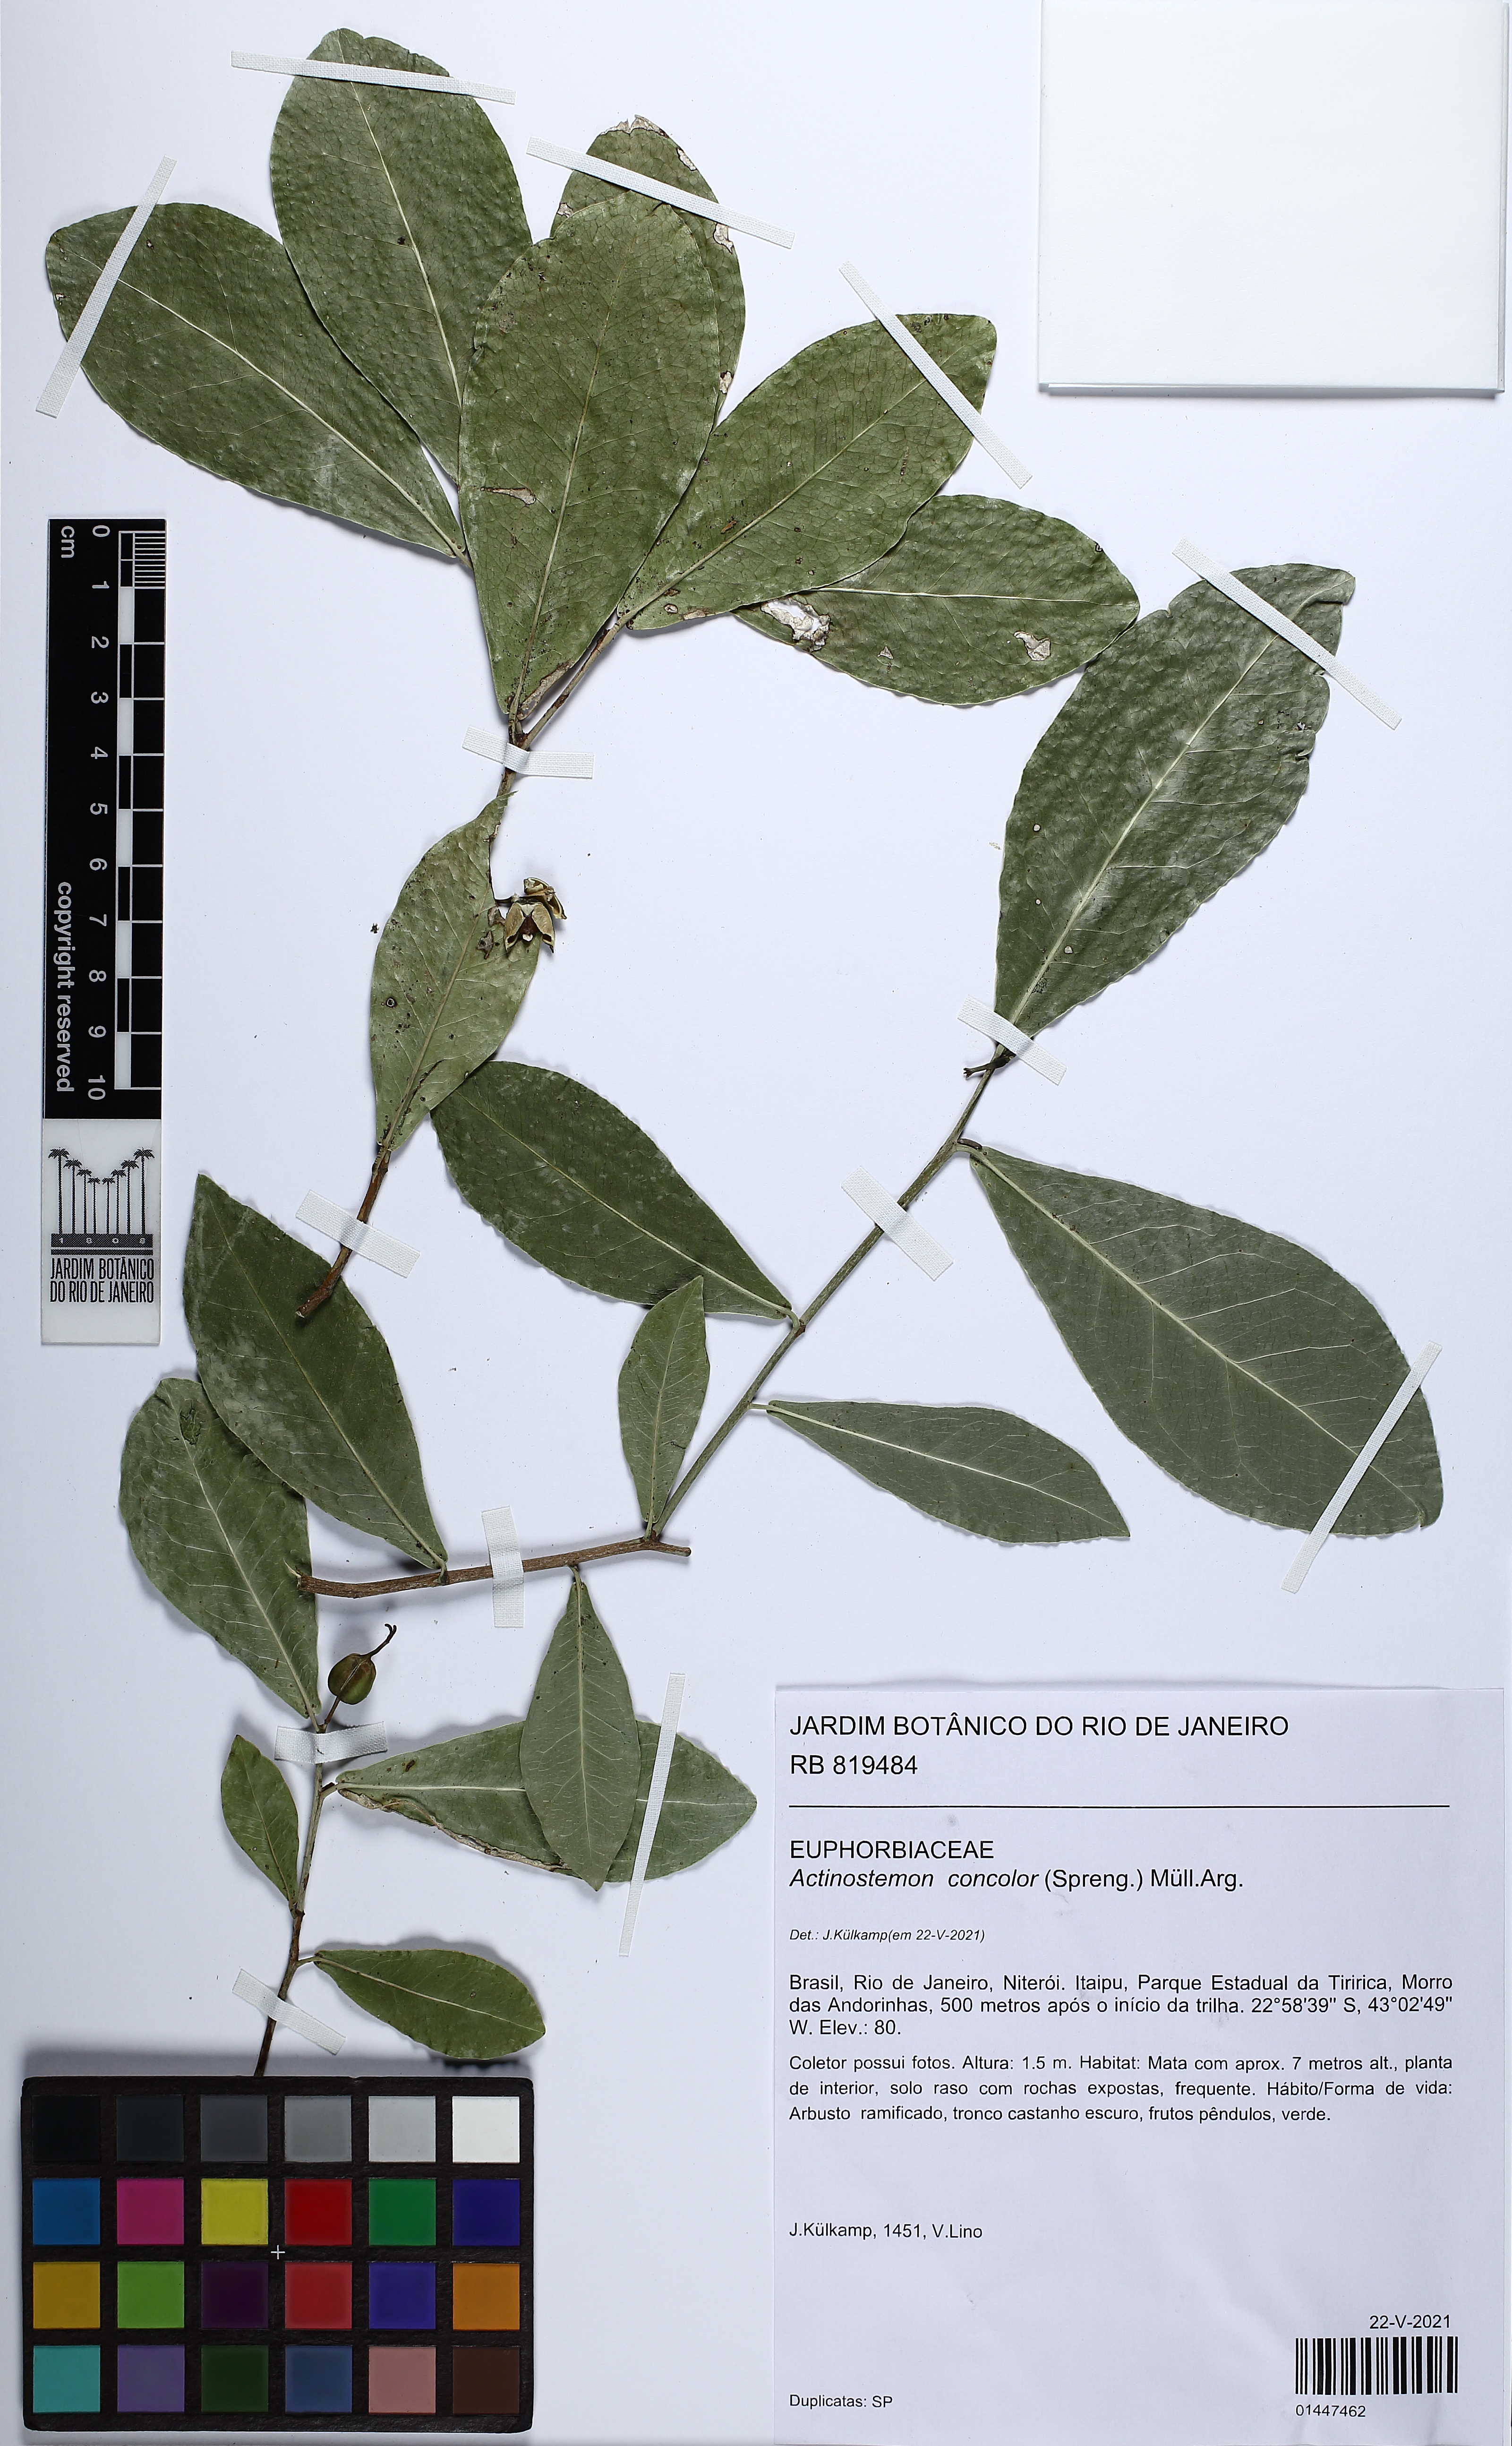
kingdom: Plantae
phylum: Tracheophyta
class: Magnoliopsida
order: Malpighiales
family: Euphorbiaceae
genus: Actinostemon
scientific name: Actinostemon concolor
